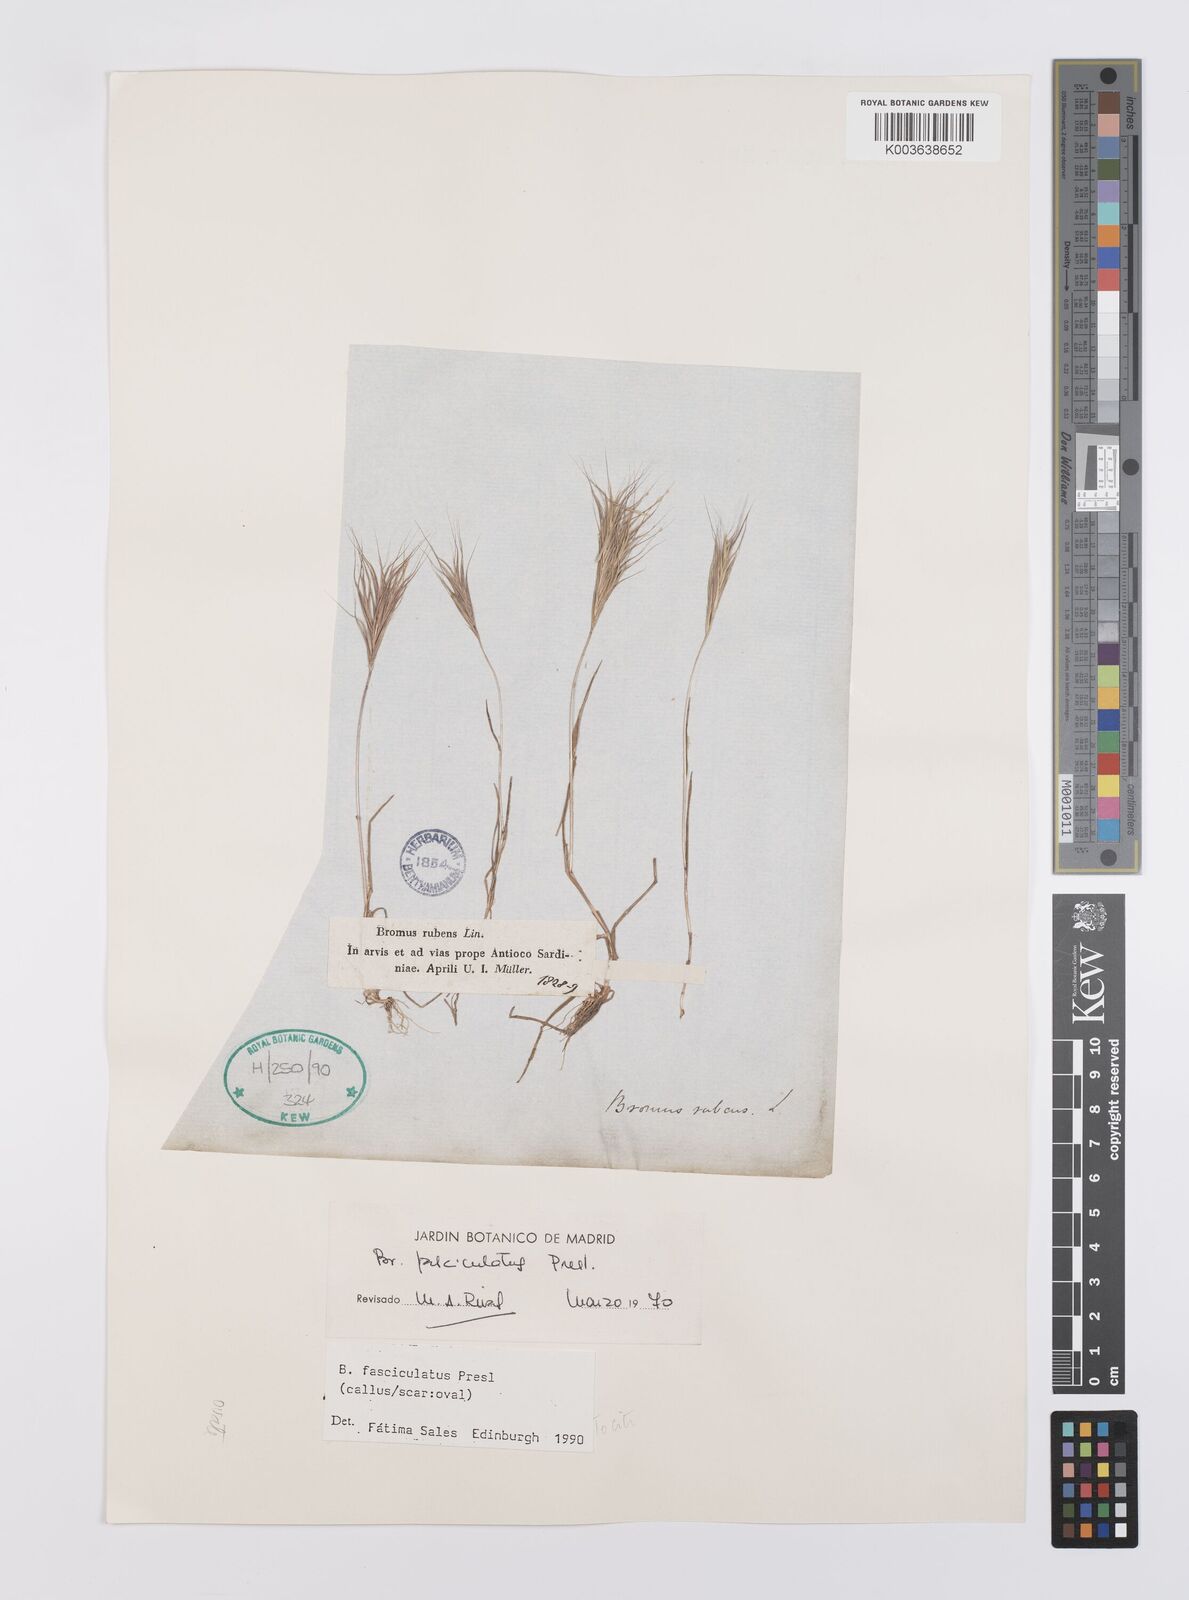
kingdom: Plantae
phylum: Tracheophyta
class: Liliopsida
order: Poales
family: Poaceae
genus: Bromus
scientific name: Bromus fasciculatus
